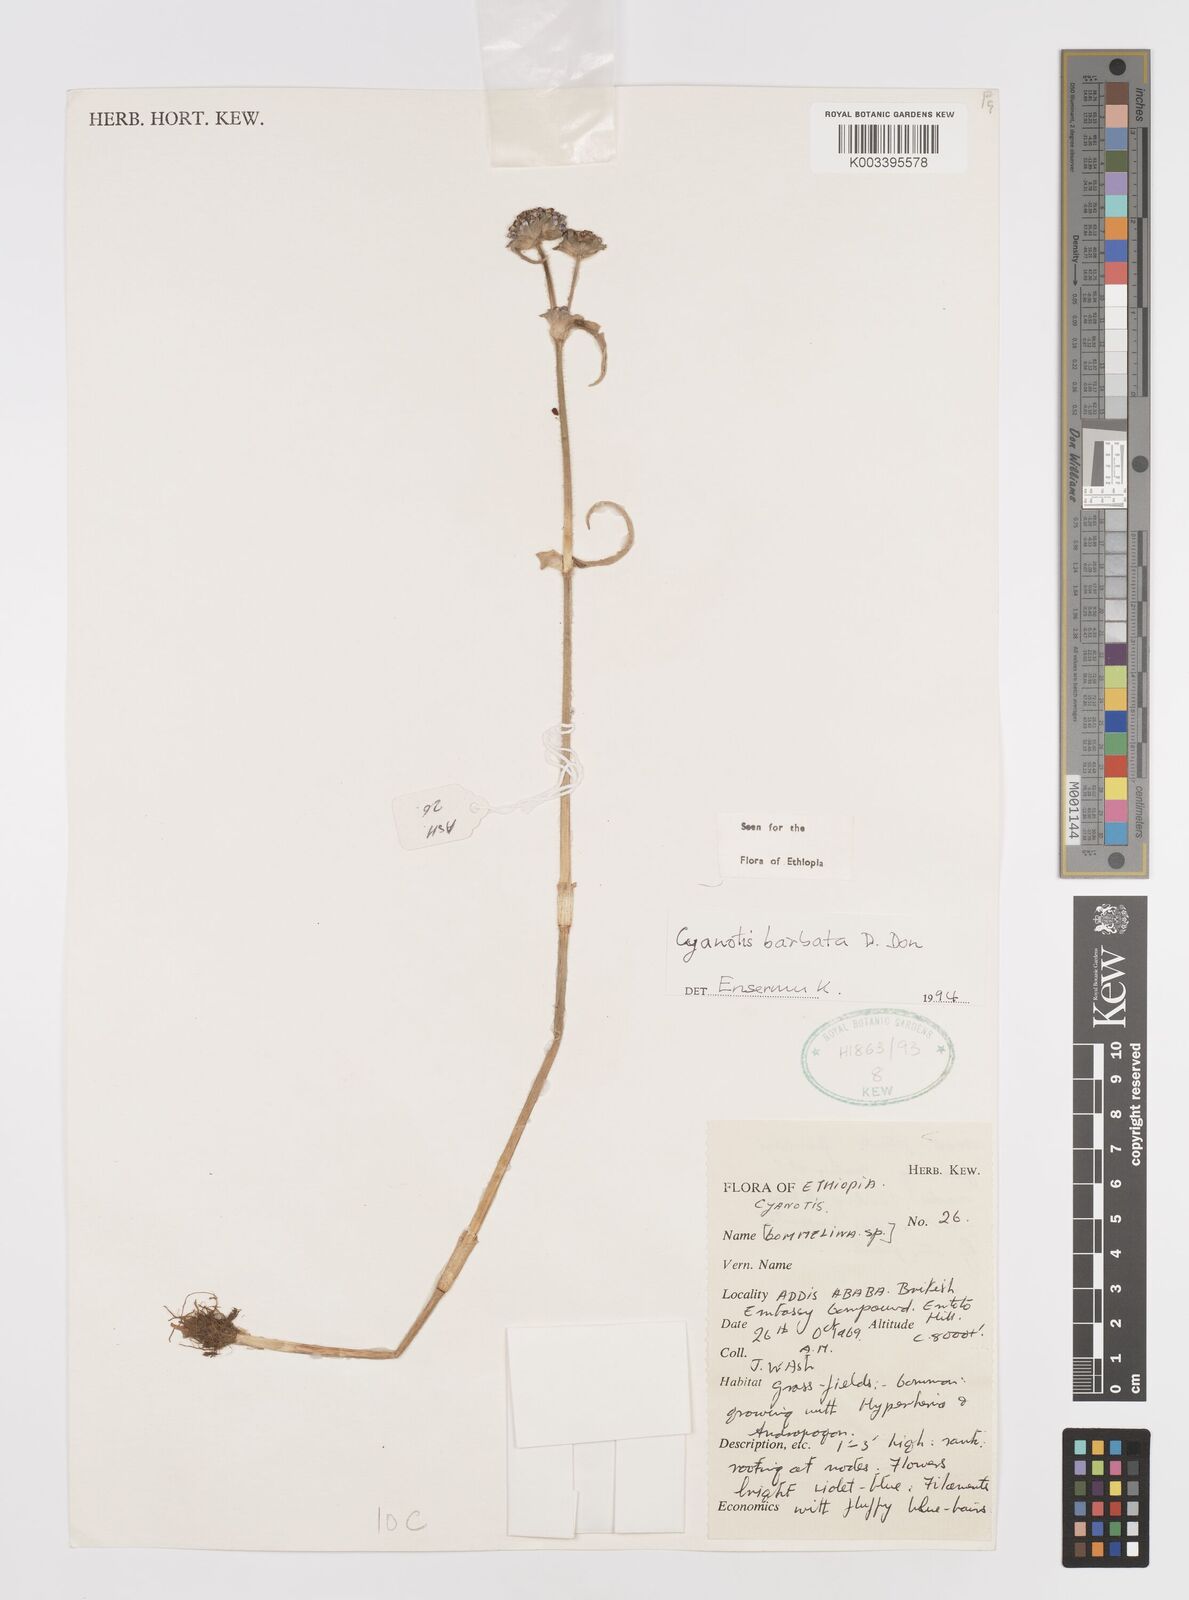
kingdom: Plantae
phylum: Tracheophyta
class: Liliopsida
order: Commelinales
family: Commelinaceae
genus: Cyanotis
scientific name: Cyanotis vaga
